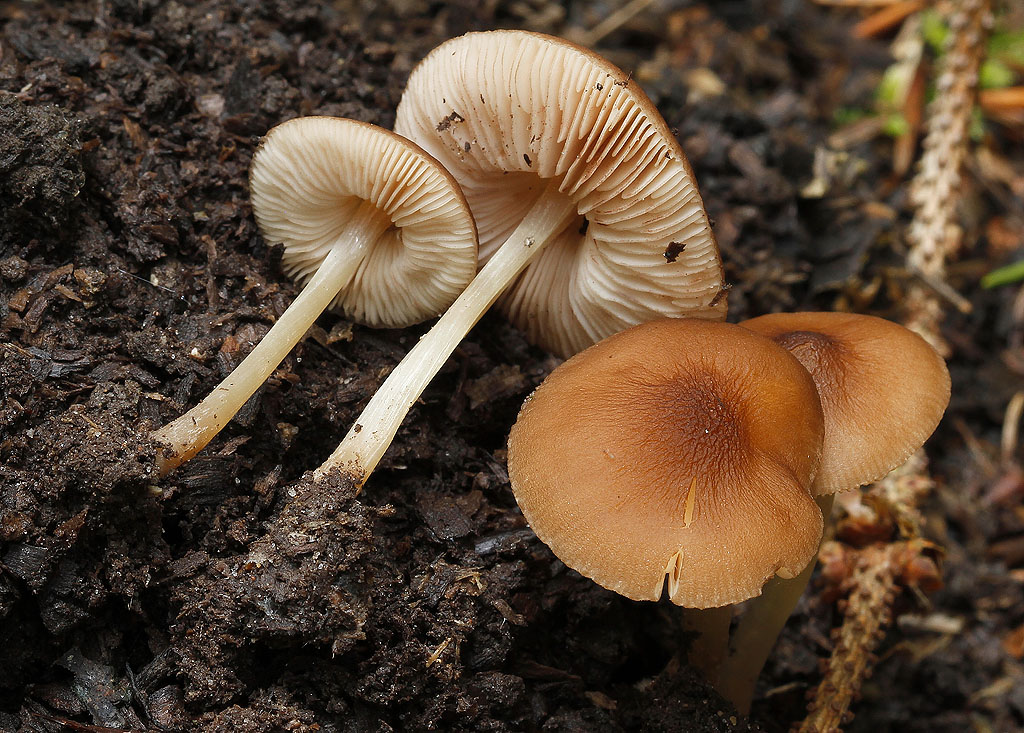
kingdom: Fungi
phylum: Basidiomycota
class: Agaricomycetes
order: Agaricales
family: Pluteaceae
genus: Pluteus
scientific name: Pluteus phlebophorus
